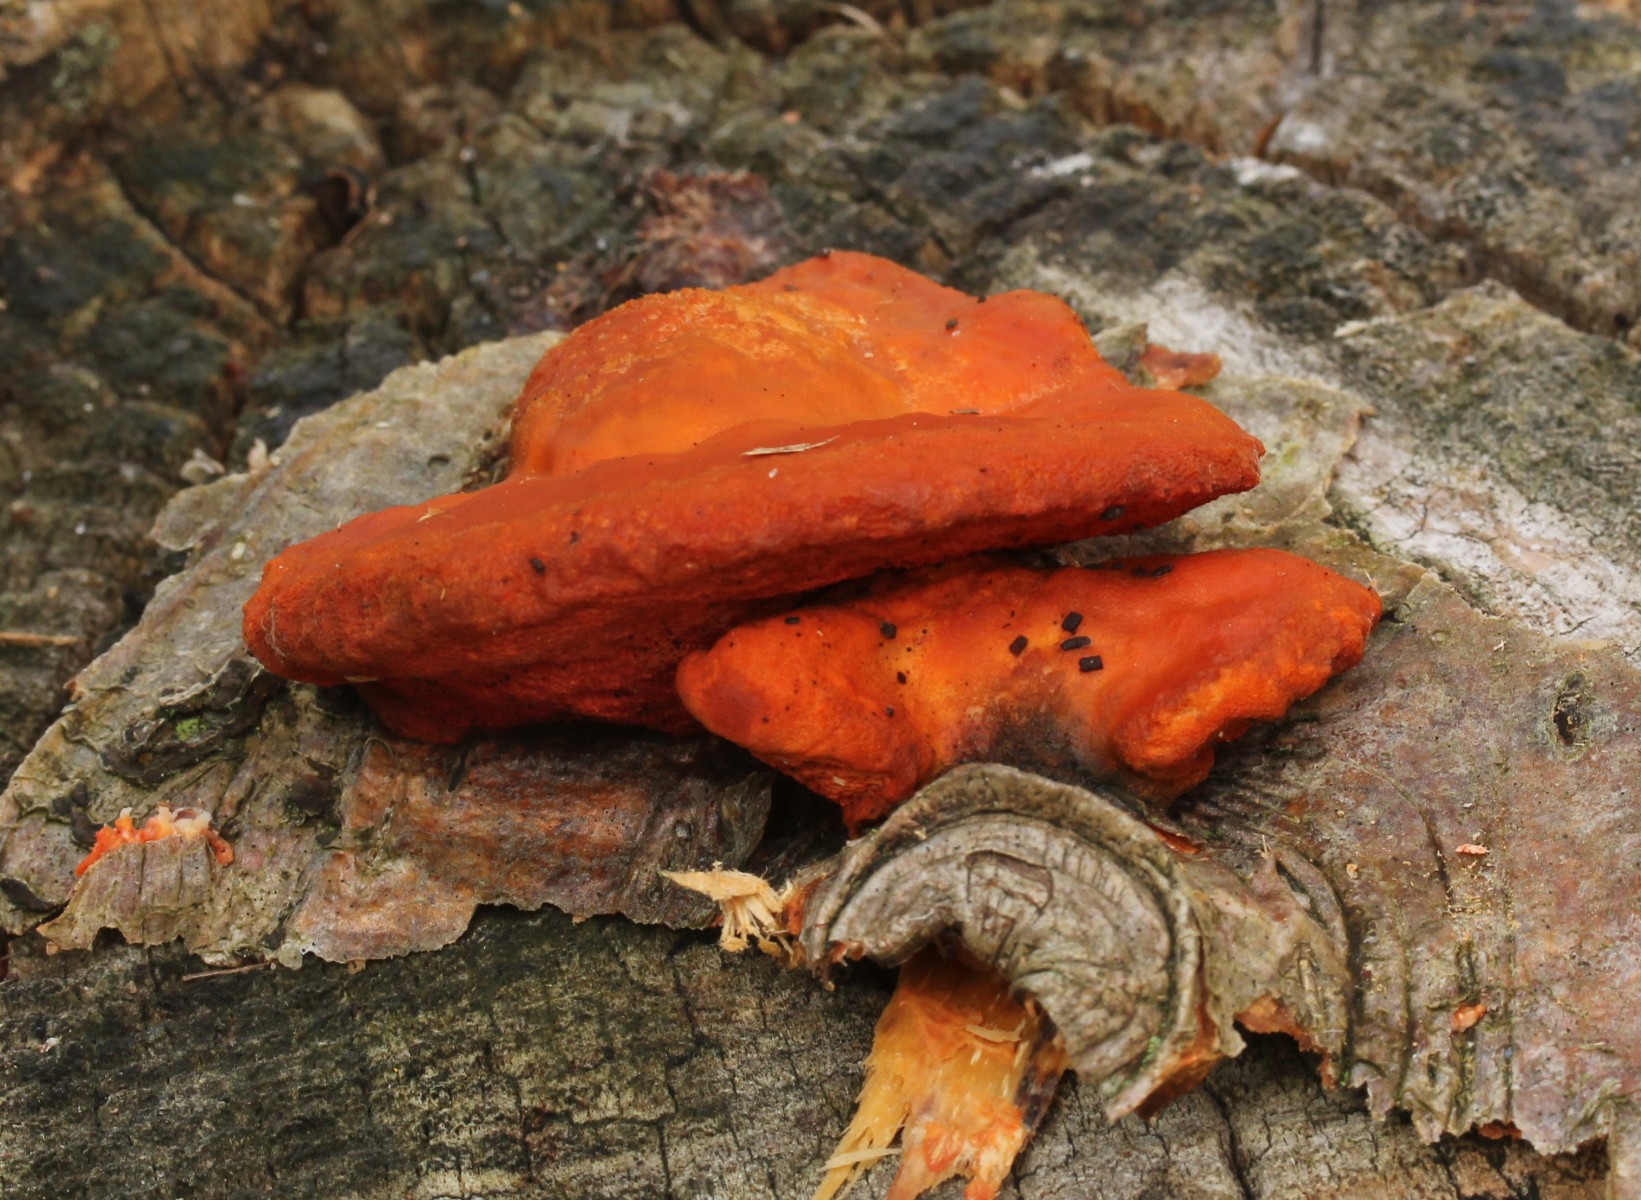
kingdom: Fungi
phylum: Basidiomycota
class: Agaricomycetes
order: Polyporales
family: Polyporaceae
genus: Trametes
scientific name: Trametes cinnabarina
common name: cinnoberporesvamp
